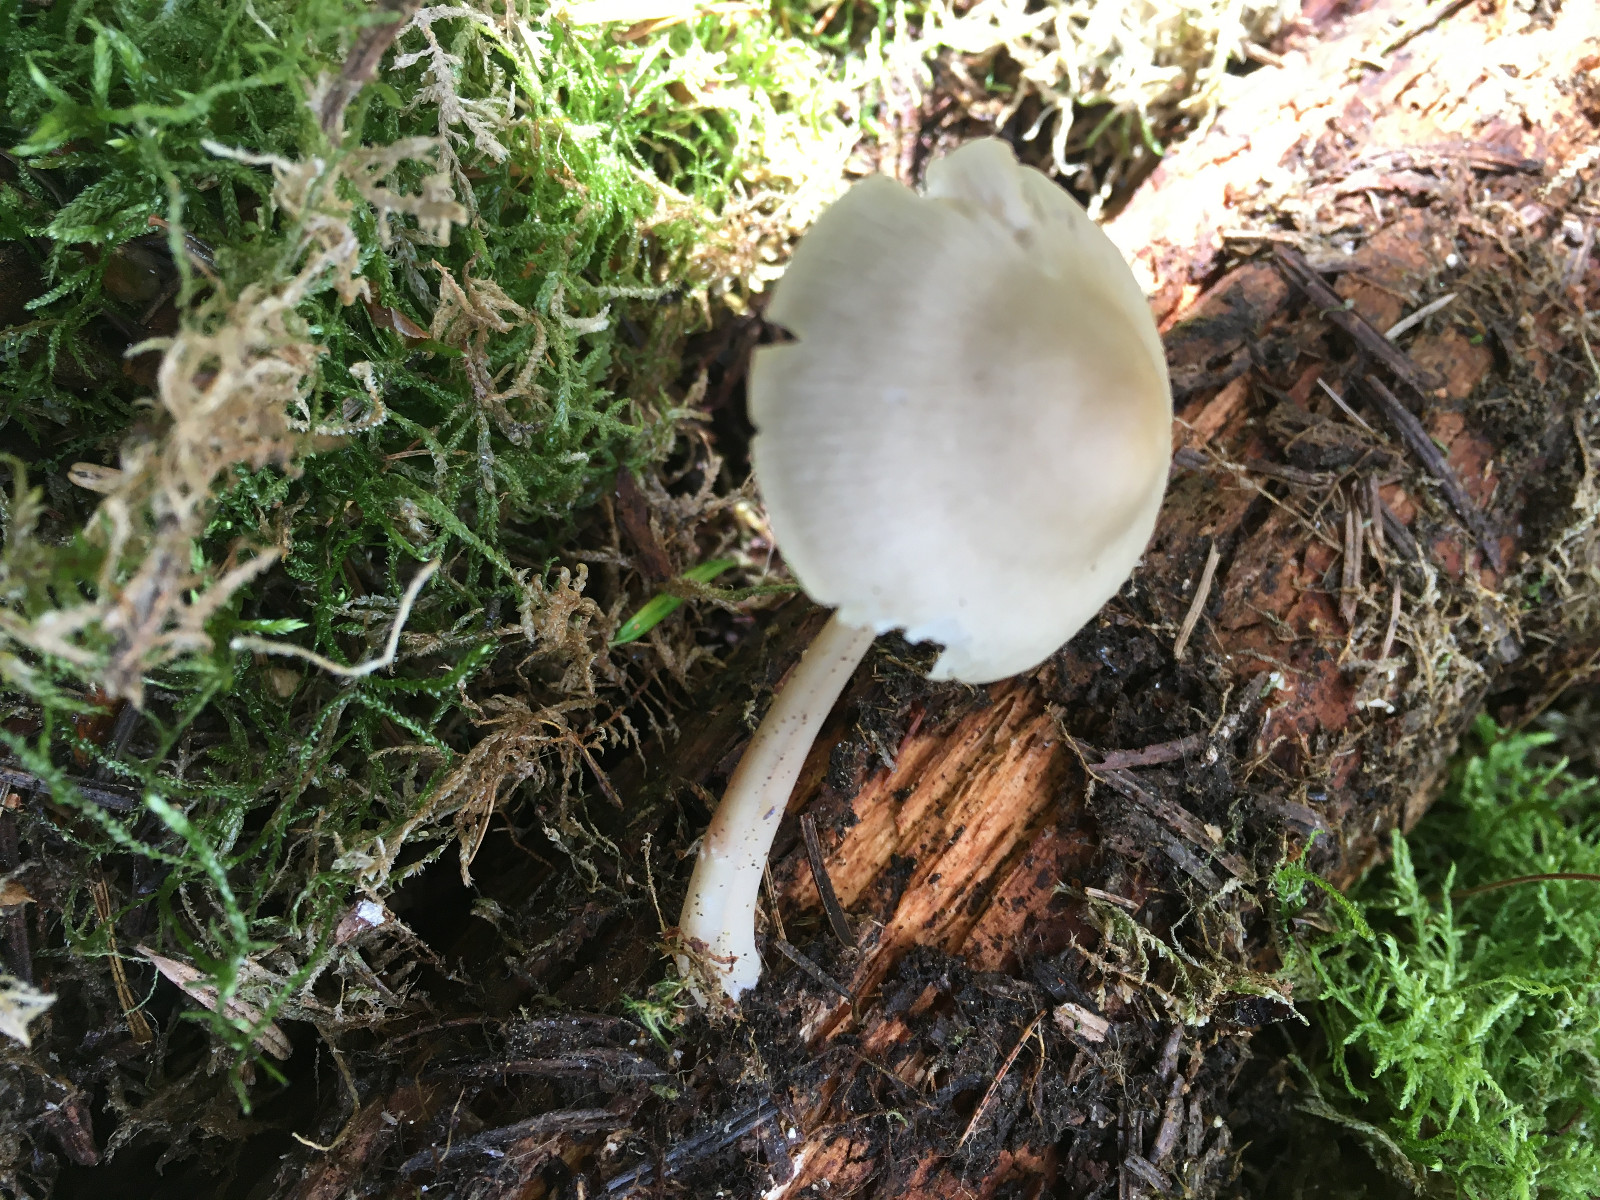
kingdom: Fungi
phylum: Basidiomycota
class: Agaricomycetes
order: Agaricales
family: Mycenaceae
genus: Mycena
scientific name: Mycena galericulata
